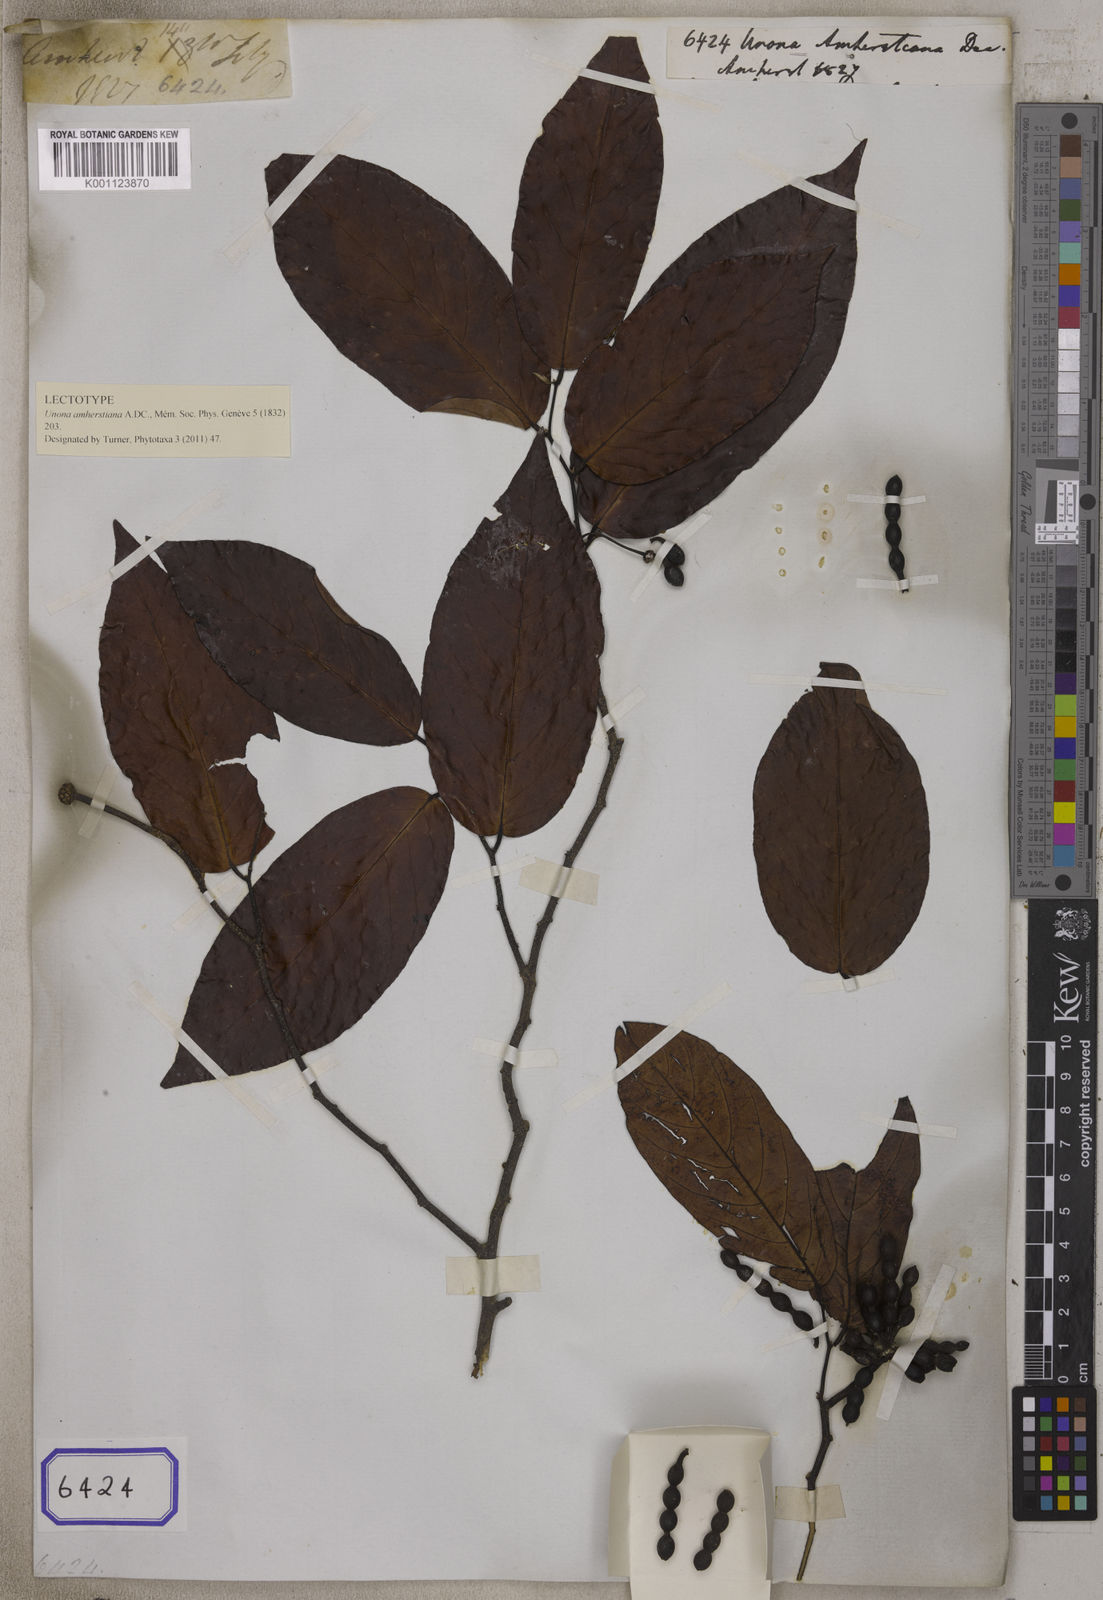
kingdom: Plantae
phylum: Tracheophyta
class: Magnoliopsida
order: Magnoliales
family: Annonaceae
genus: Desmos
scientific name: Desmos chinensis
